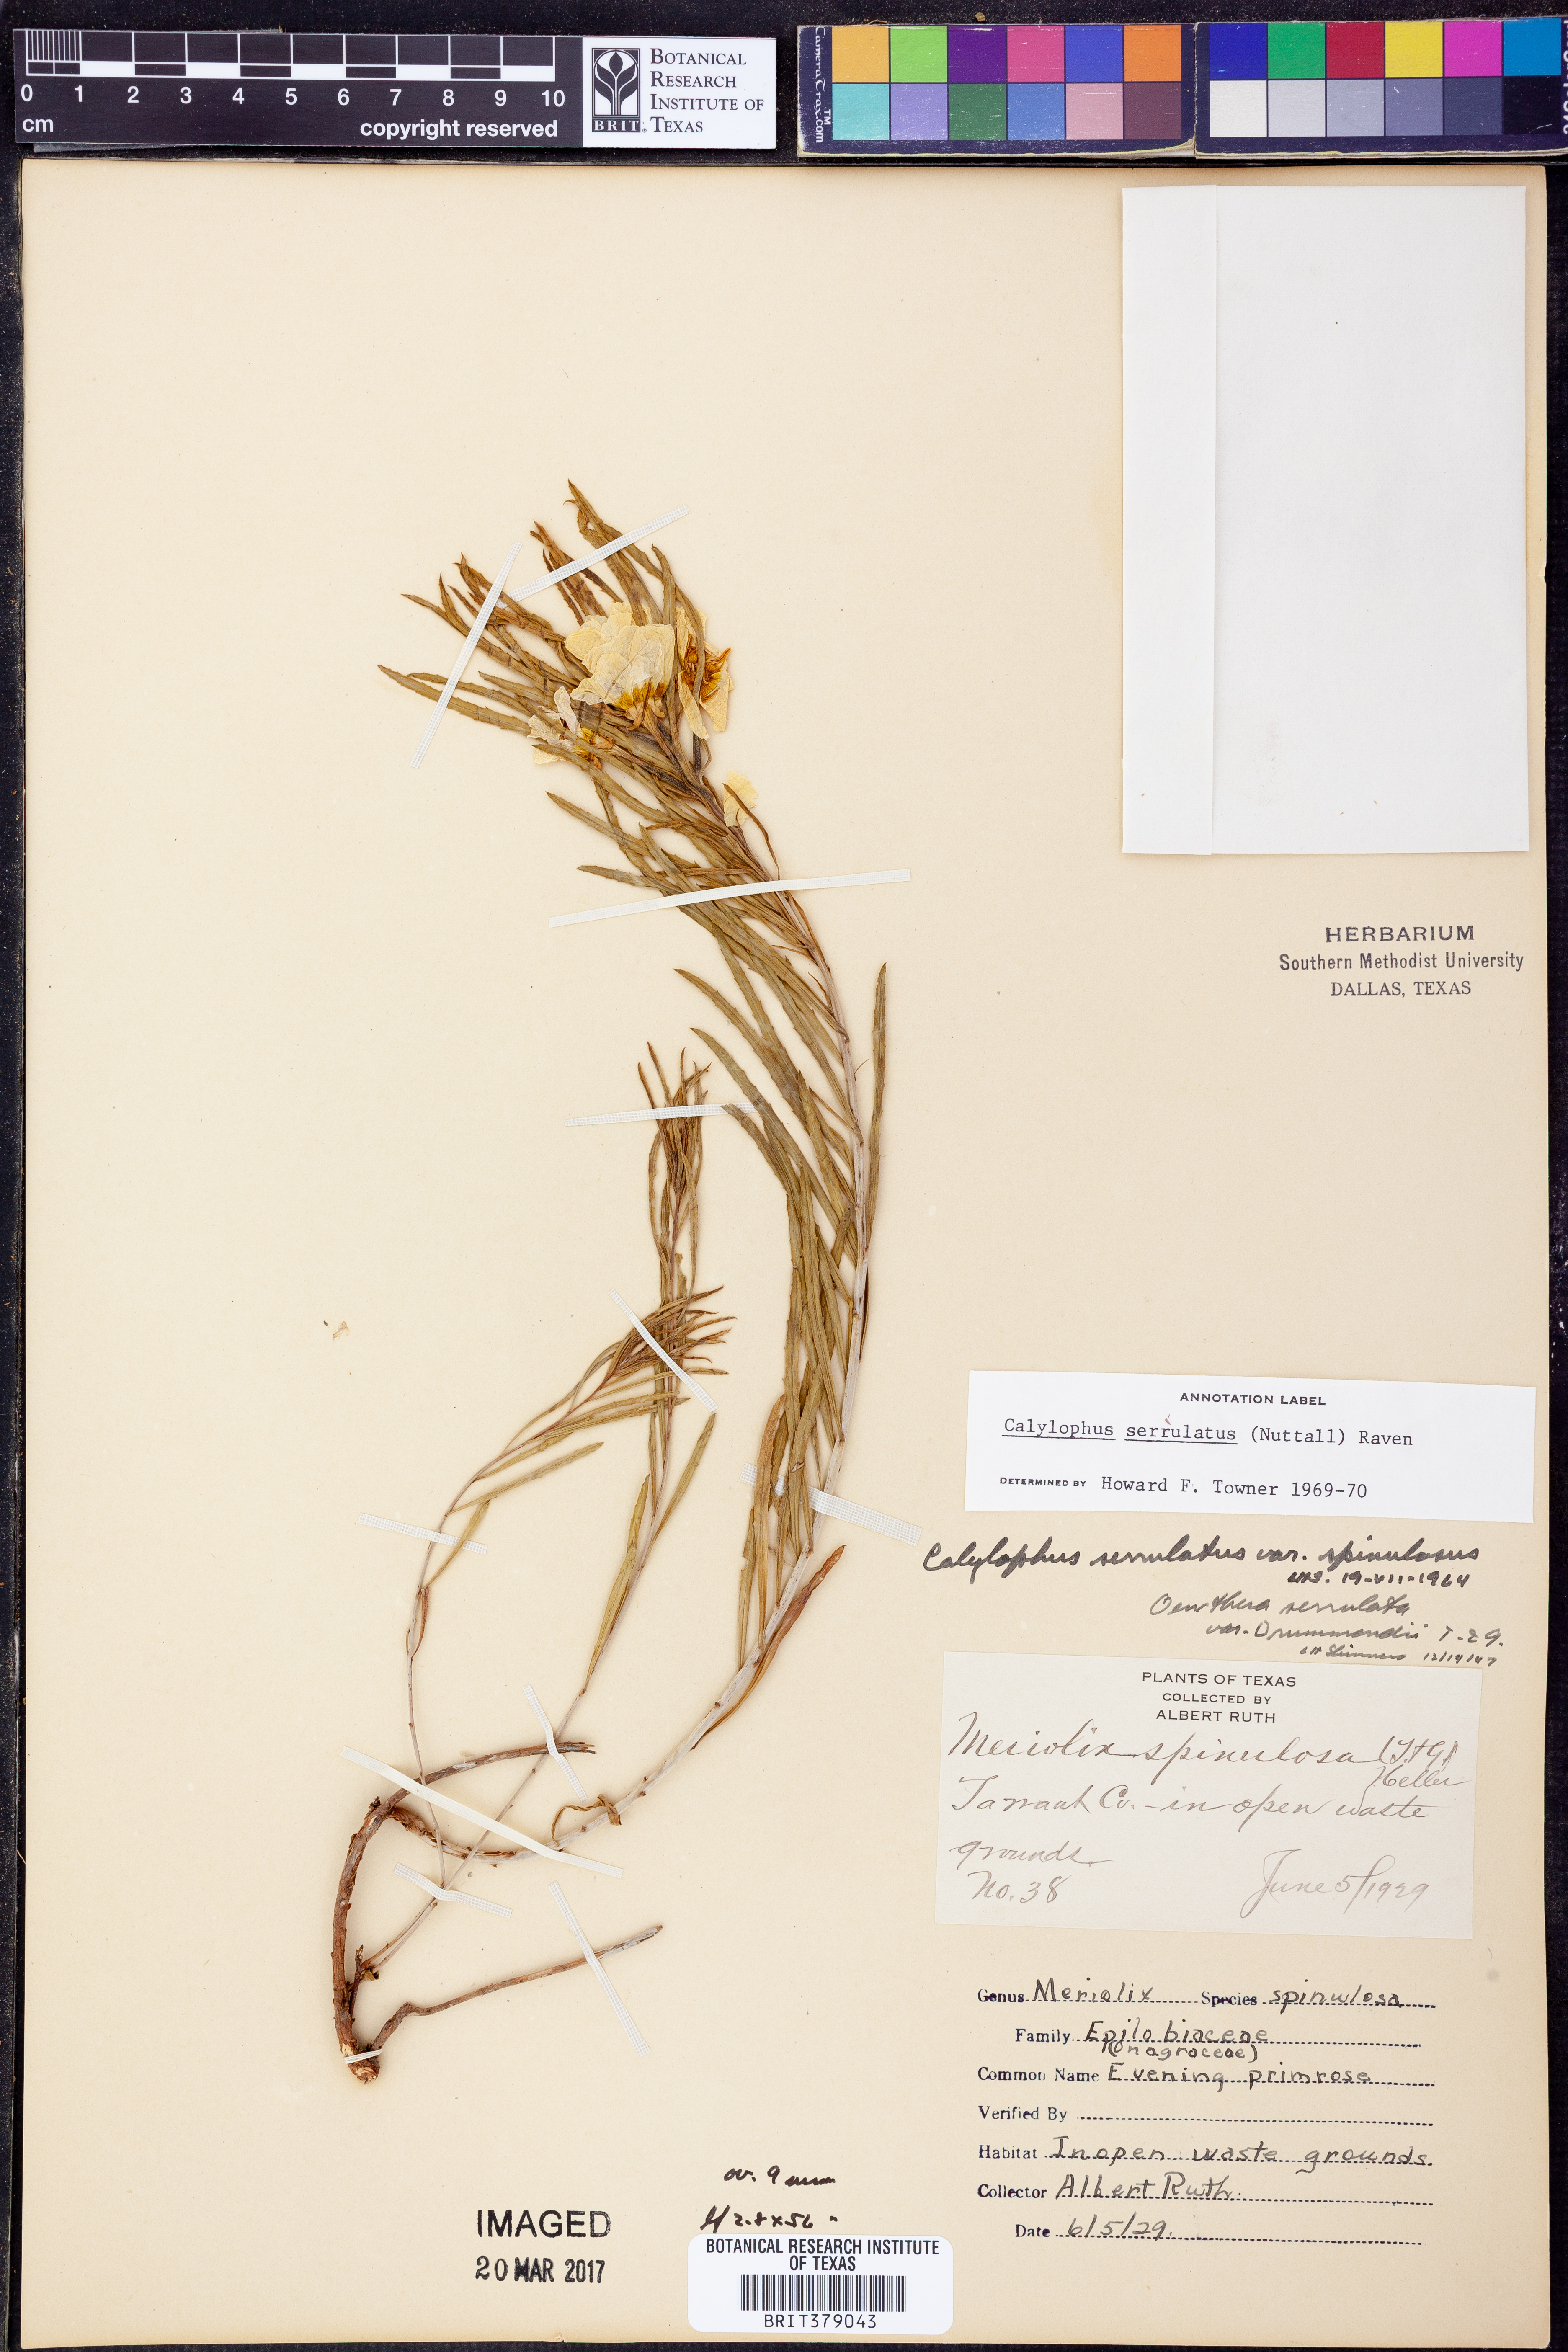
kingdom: Plantae
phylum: Tracheophyta
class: Magnoliopsida
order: Myrtales
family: Onagraceae
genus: Oenothera
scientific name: Oenothera serrulata
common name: Half-shrub calylophus
